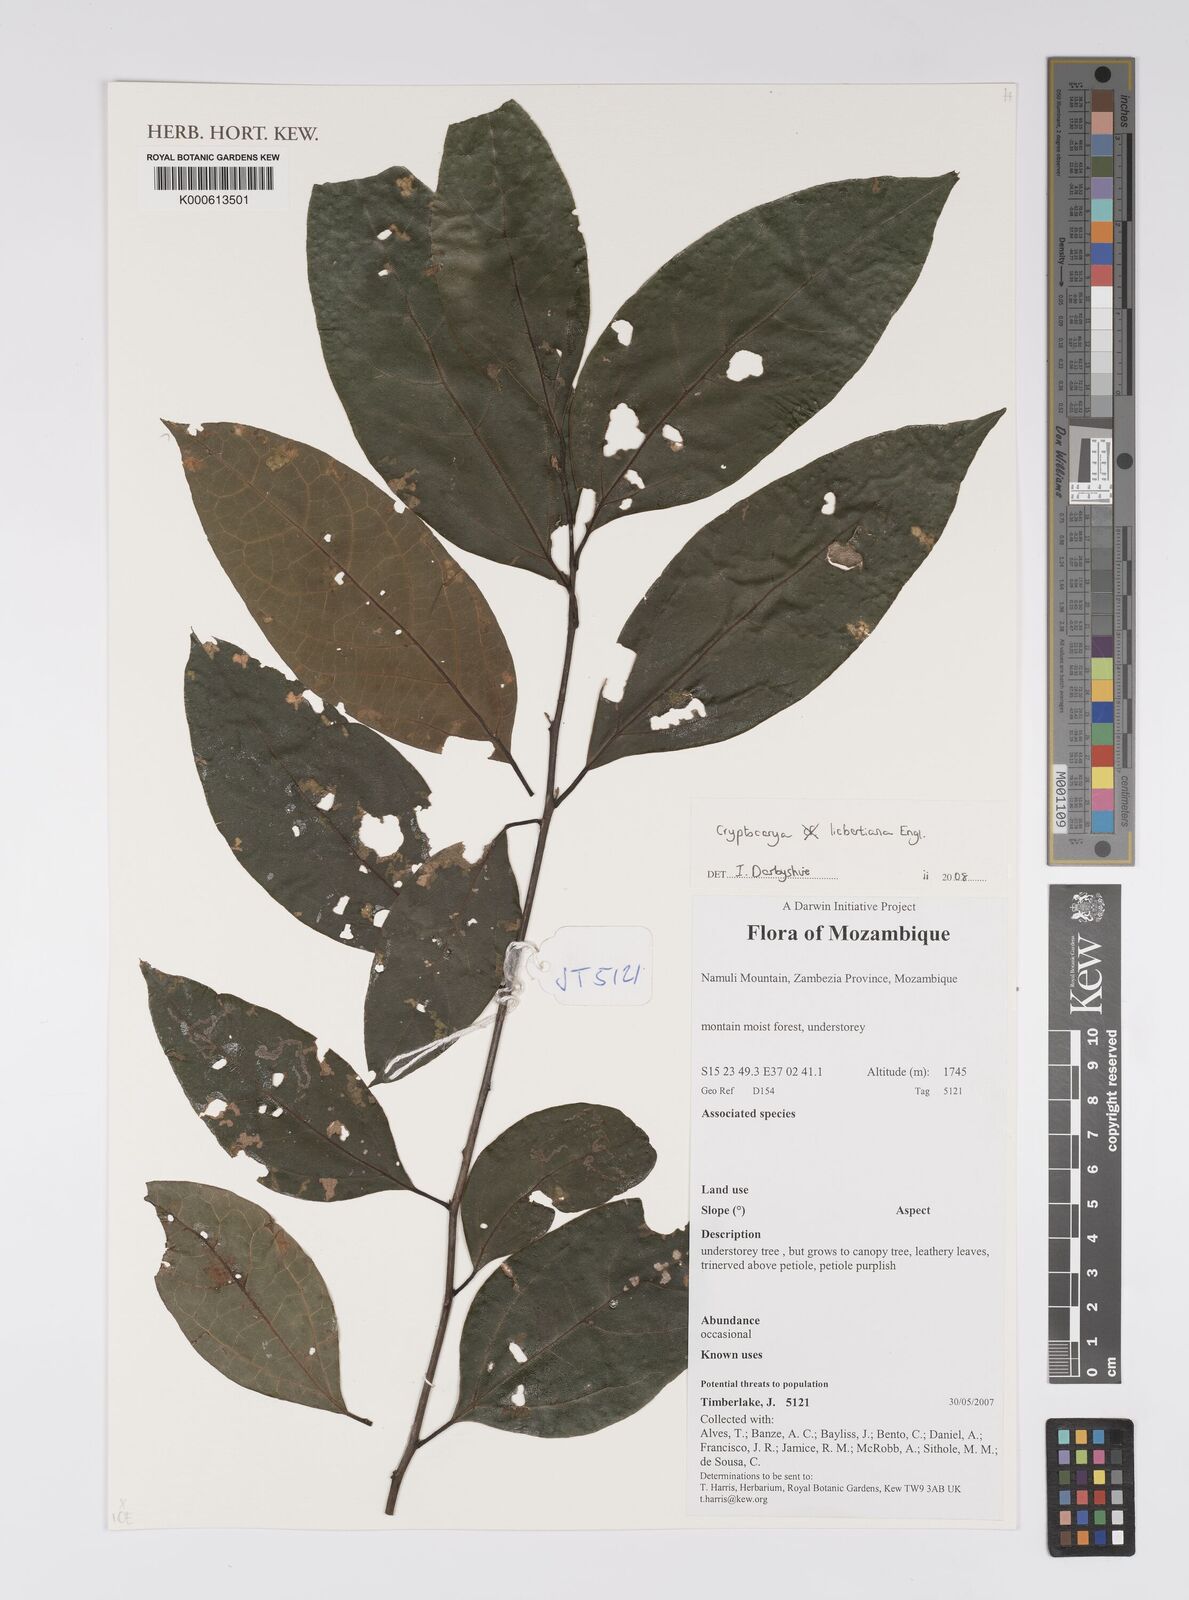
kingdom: Plantae
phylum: Tracheophyta
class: Magnoliopsida
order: Laurales
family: Lauraceae
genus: Cryptocarya
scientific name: Cryptocarya liebertiana
